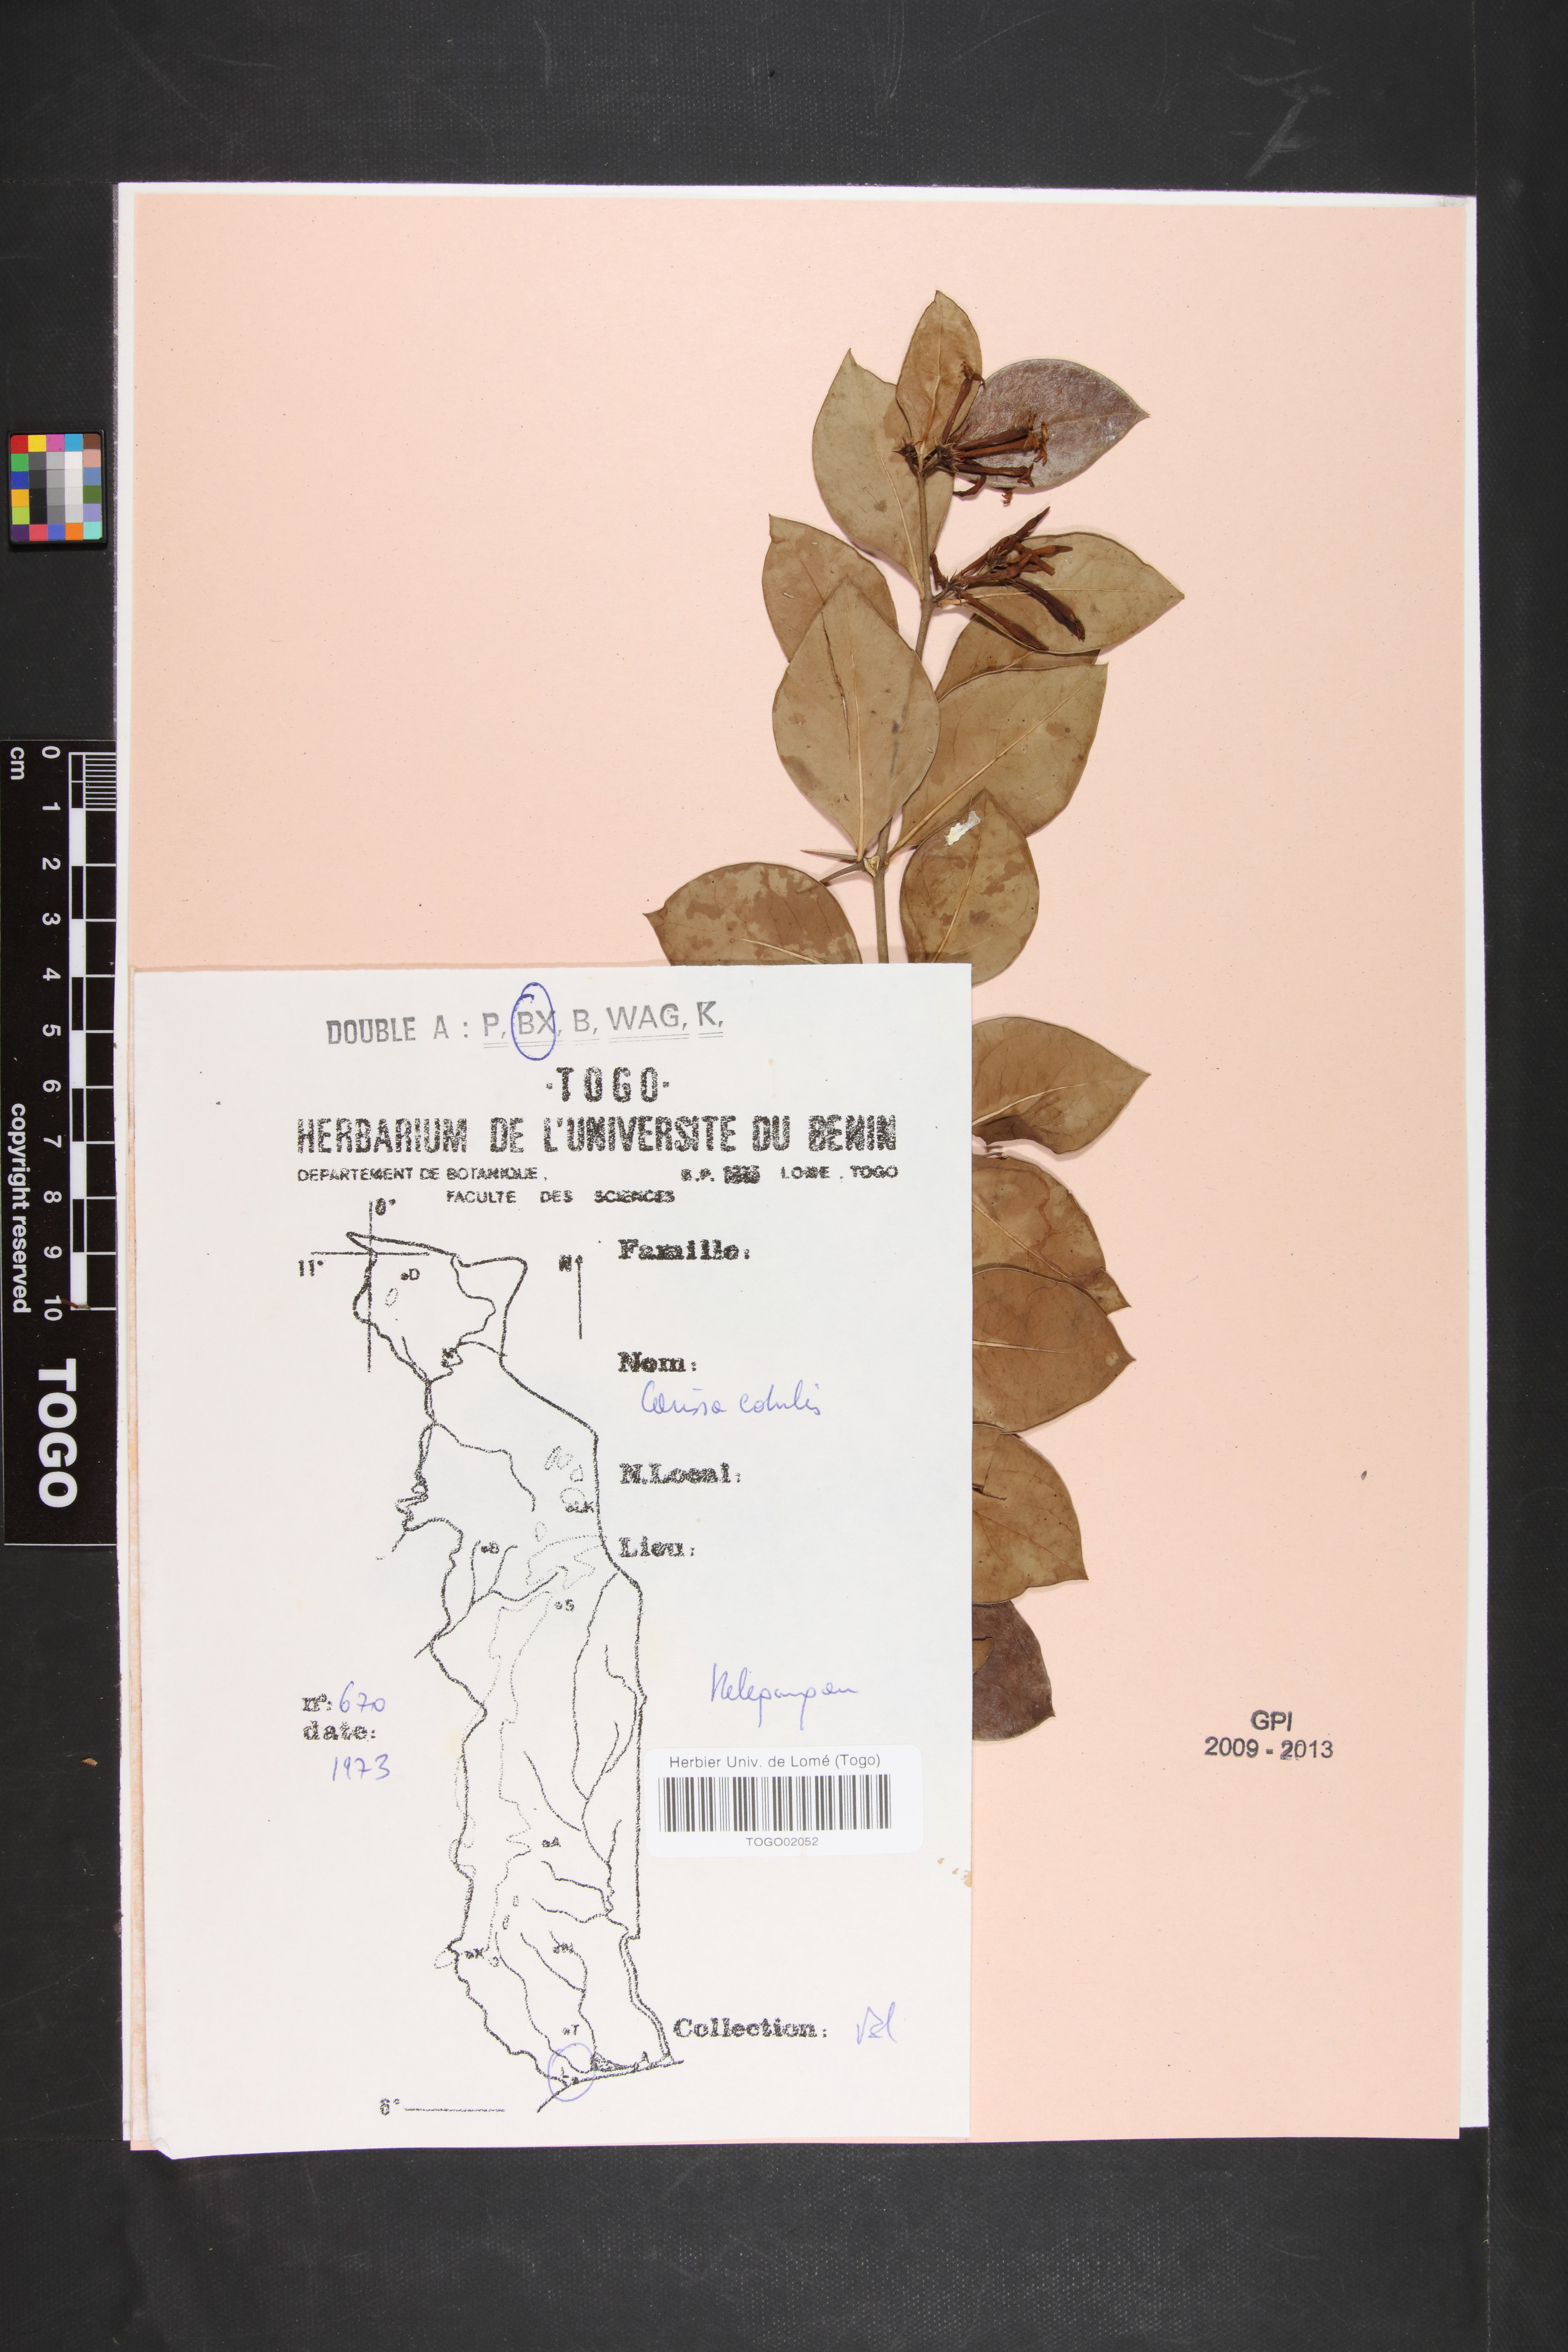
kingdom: Plantae
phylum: Tracheophyta
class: Magnoliopsida
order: Gentianales
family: Apocynaceae
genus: Carissa
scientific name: Carissa spinarum
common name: Egyptian carissa
